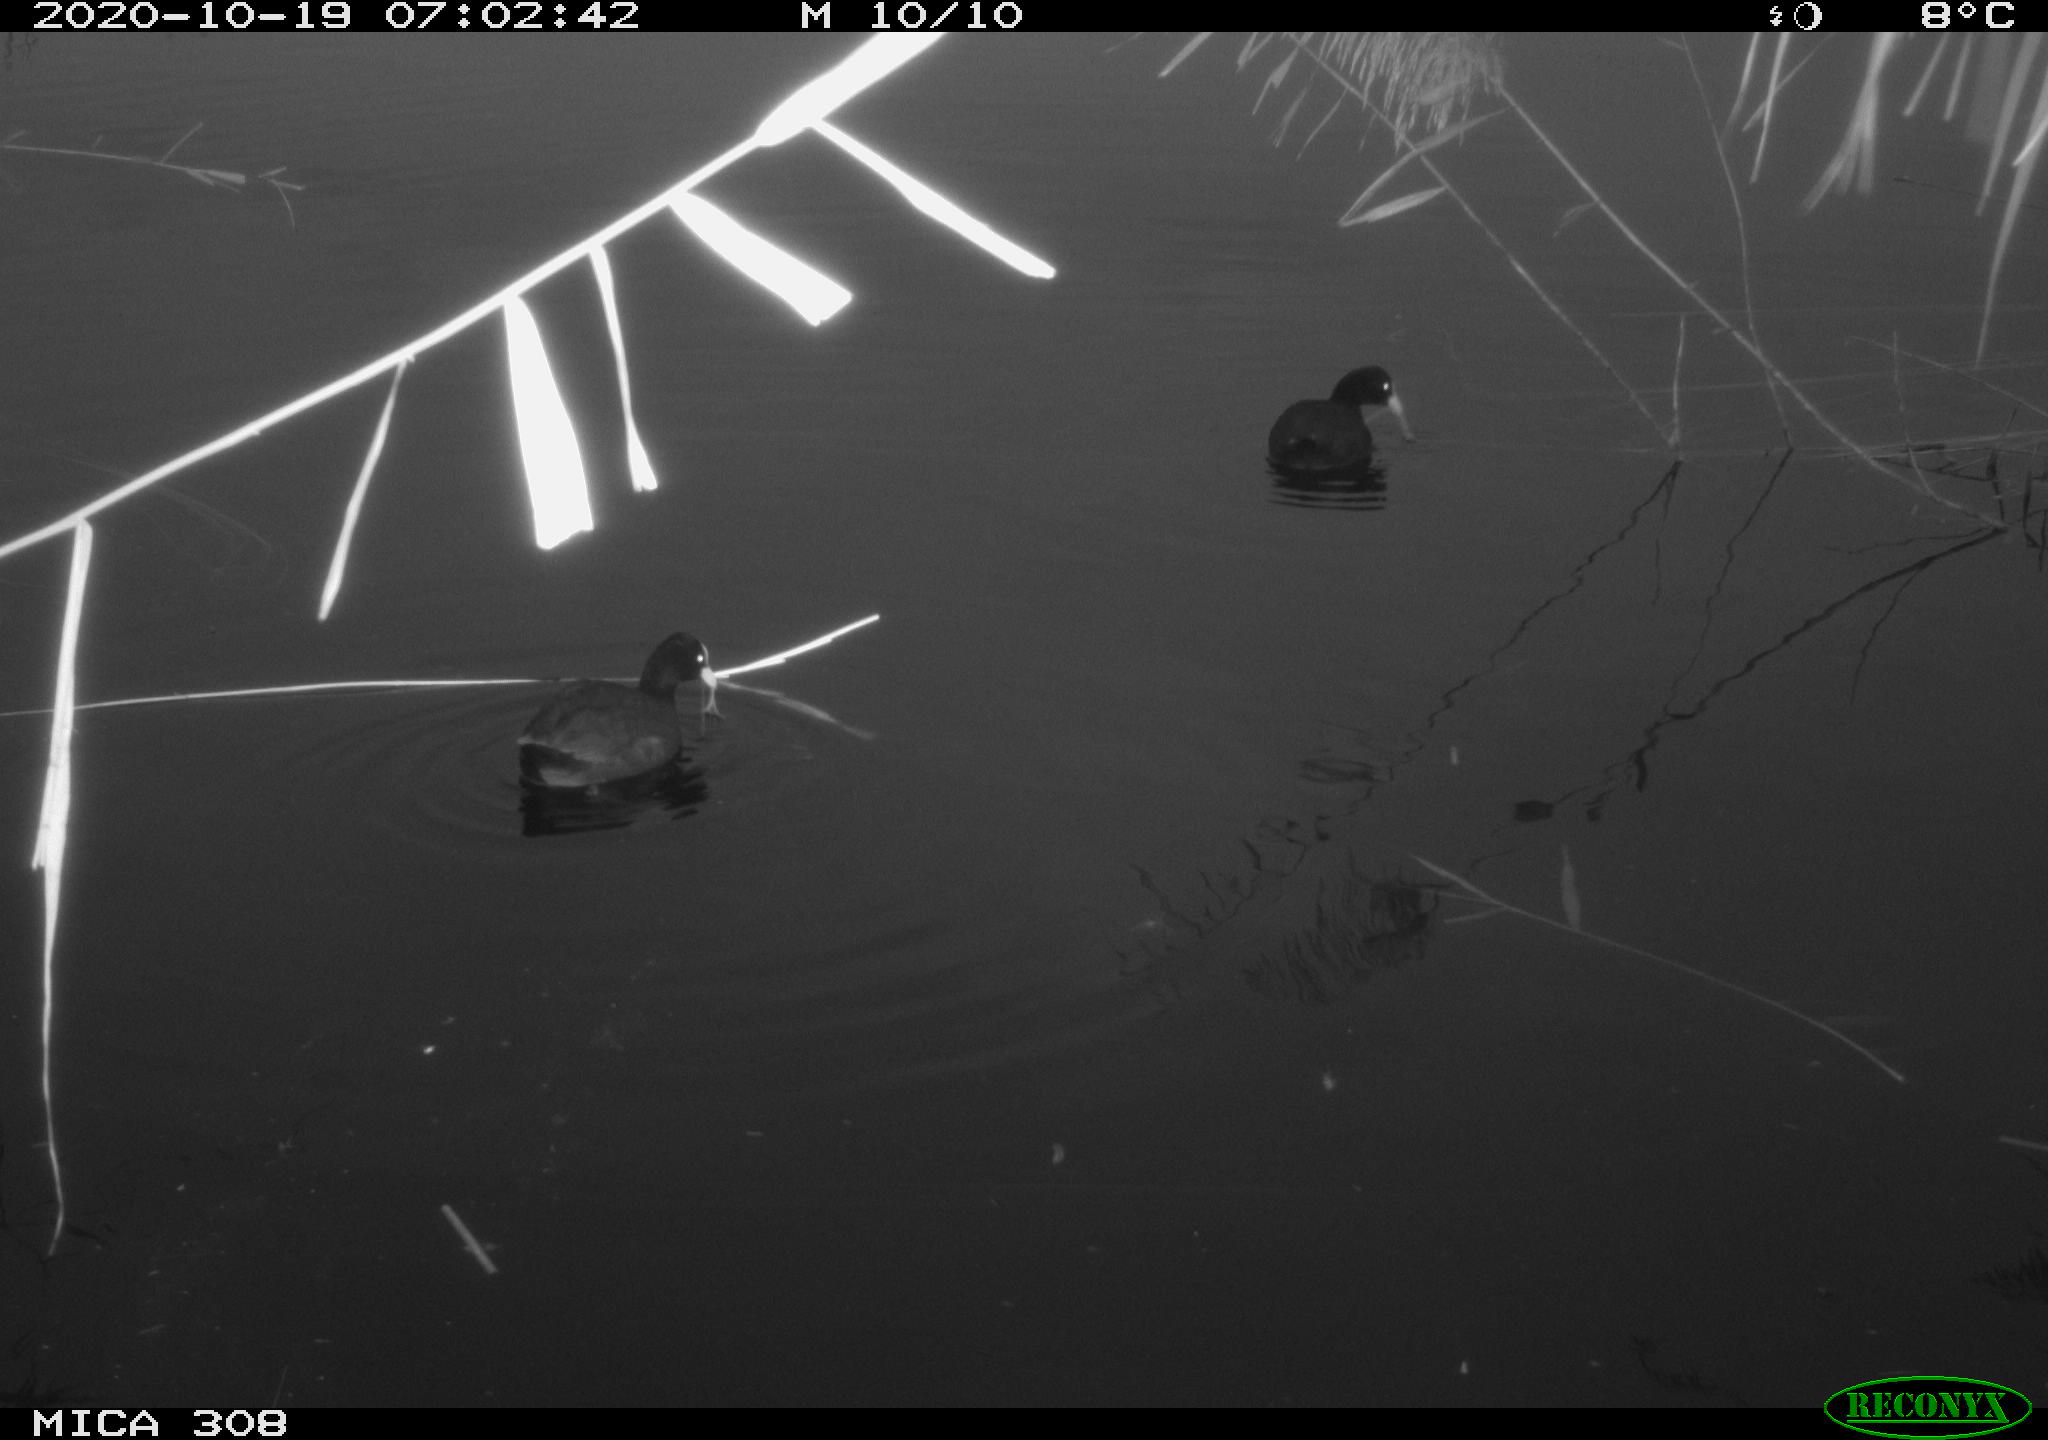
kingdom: Animalia
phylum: Chordata
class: Aves
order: Gruiformes
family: Rallidae
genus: Fulica
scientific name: Fulica atra
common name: Eurasian coot
